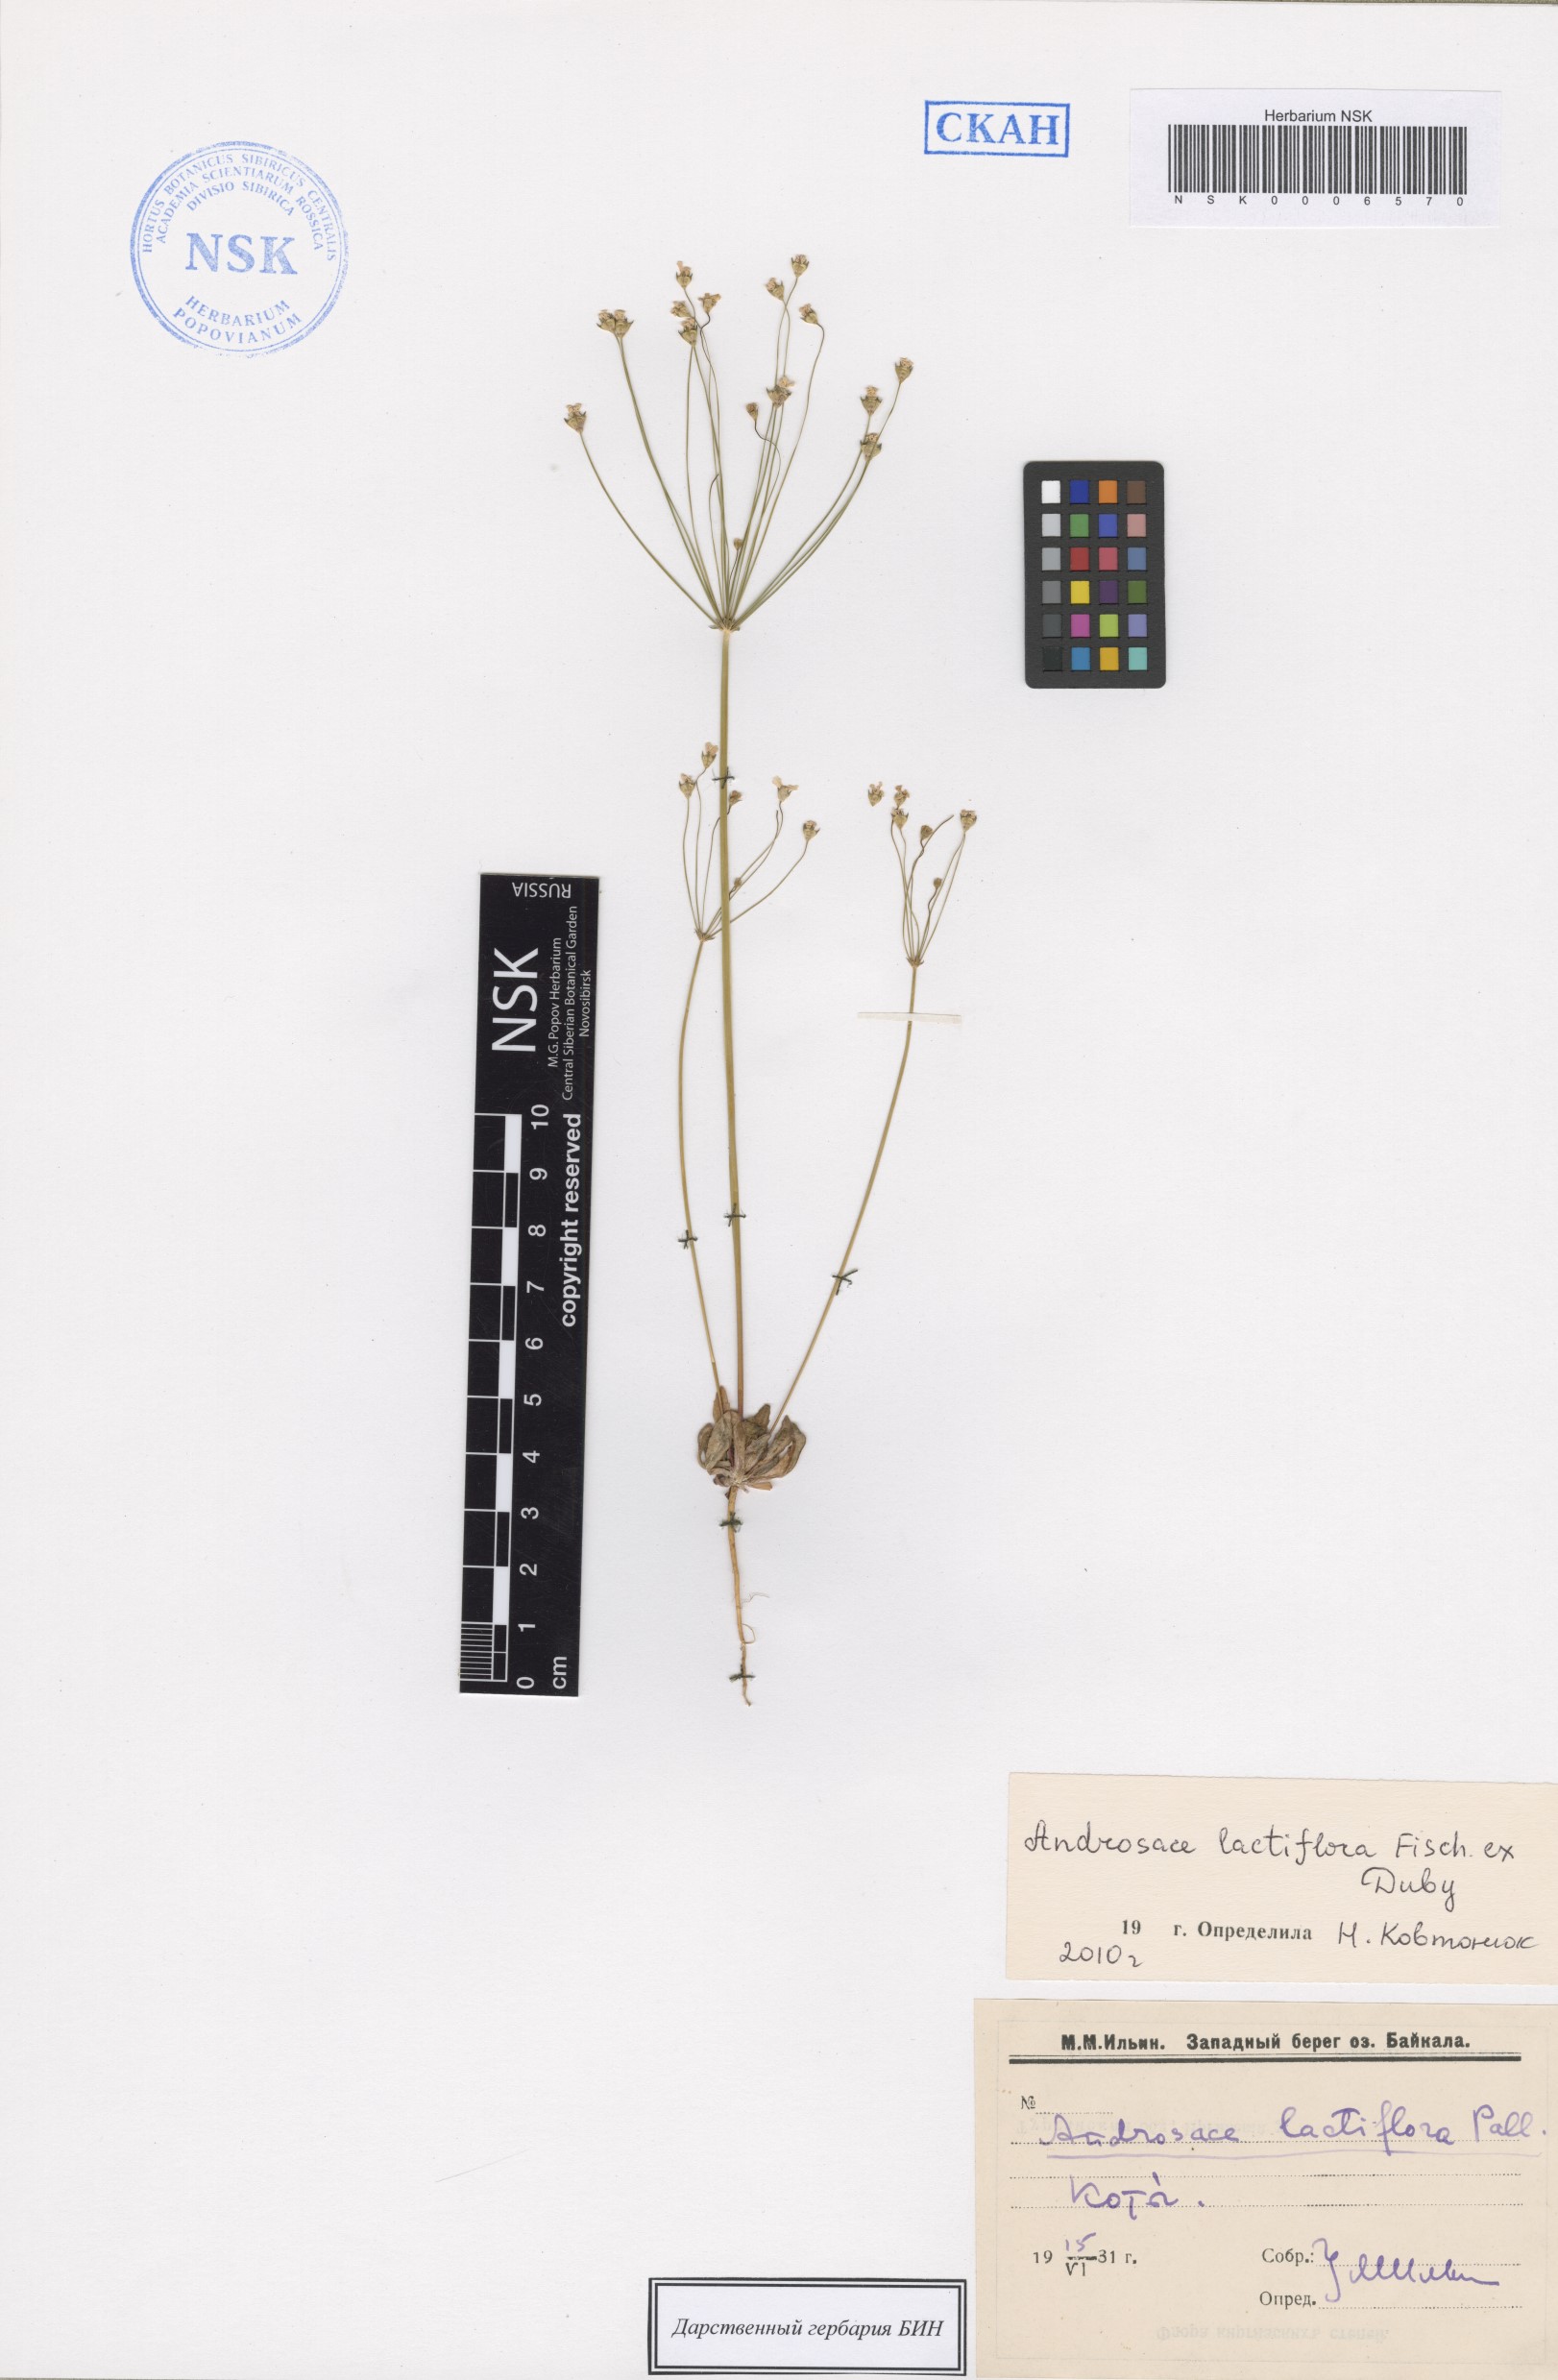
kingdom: Plantae
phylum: Tracheophyta
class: Magnoliopsida
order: Ericales
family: Primulaceae
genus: Androsace
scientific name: Androsace lactiflora
